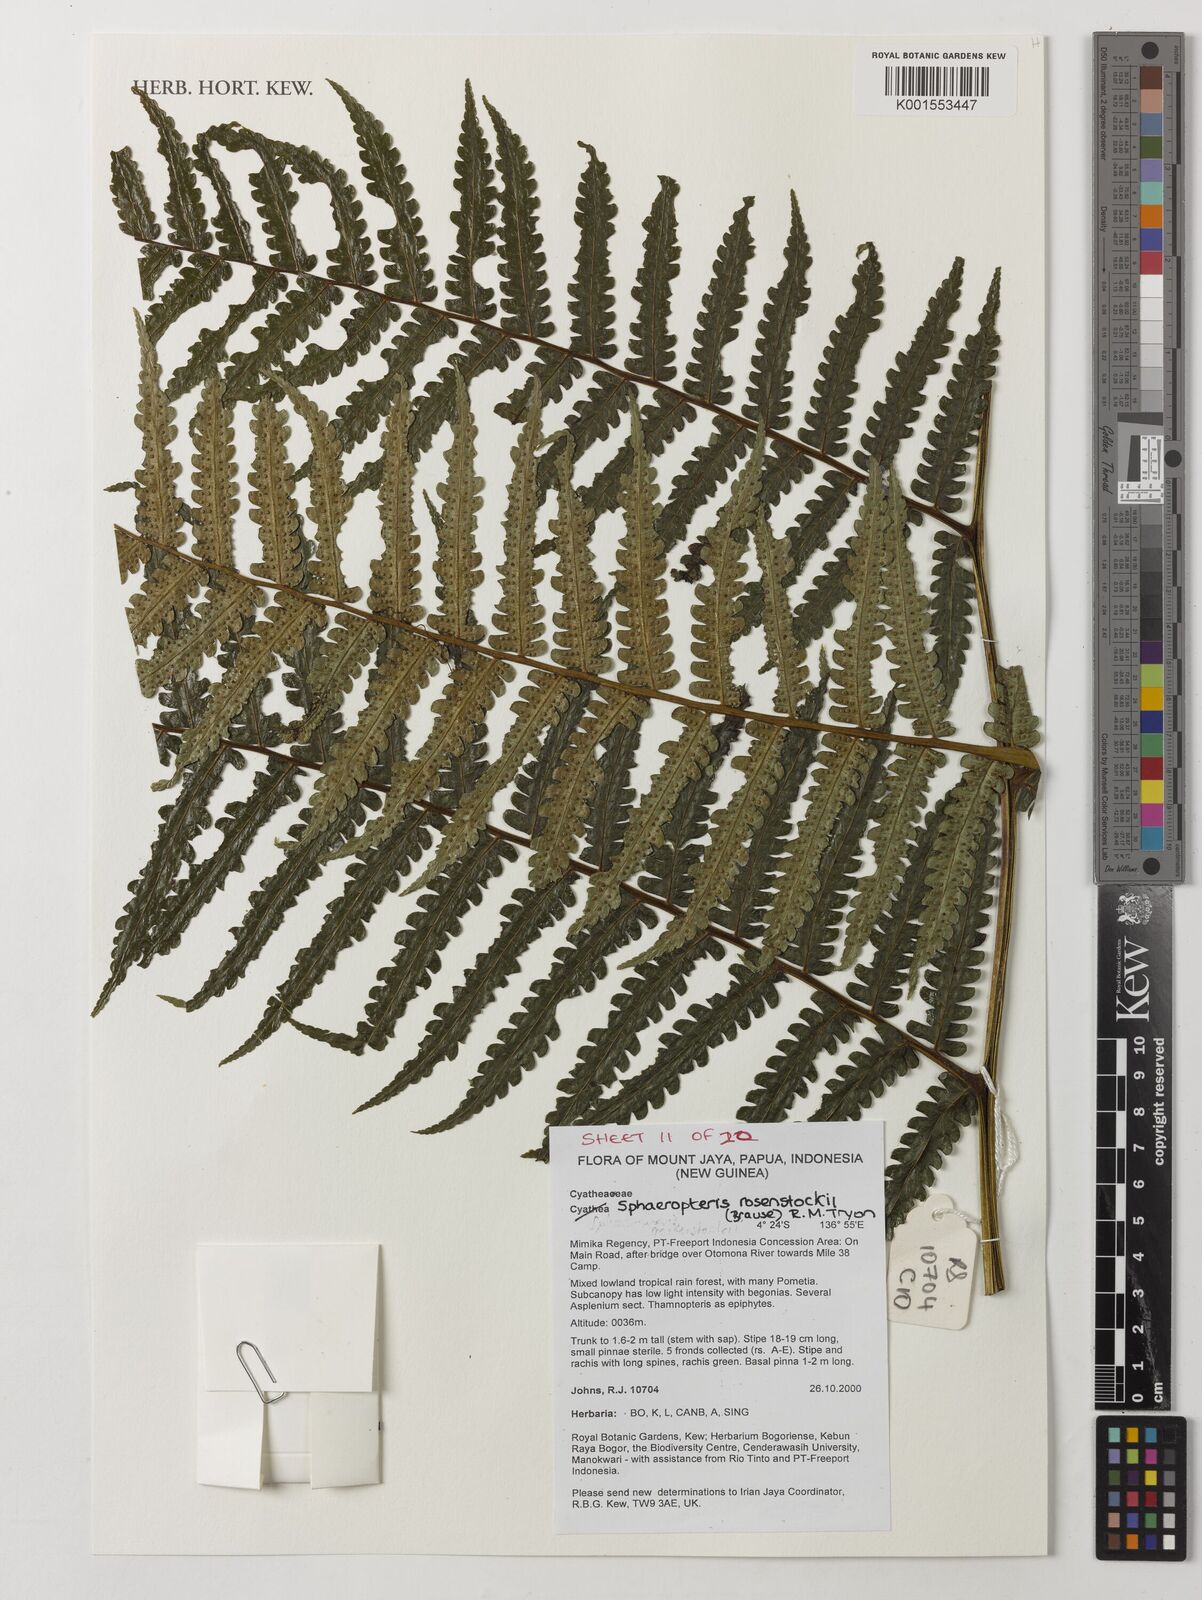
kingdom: Plantae
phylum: Tracheophyta
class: Polypodiopsida
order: Cyatheales
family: Cyatheaceae
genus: Sphaeropteris
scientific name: Sphaeropteris rosenstockii
